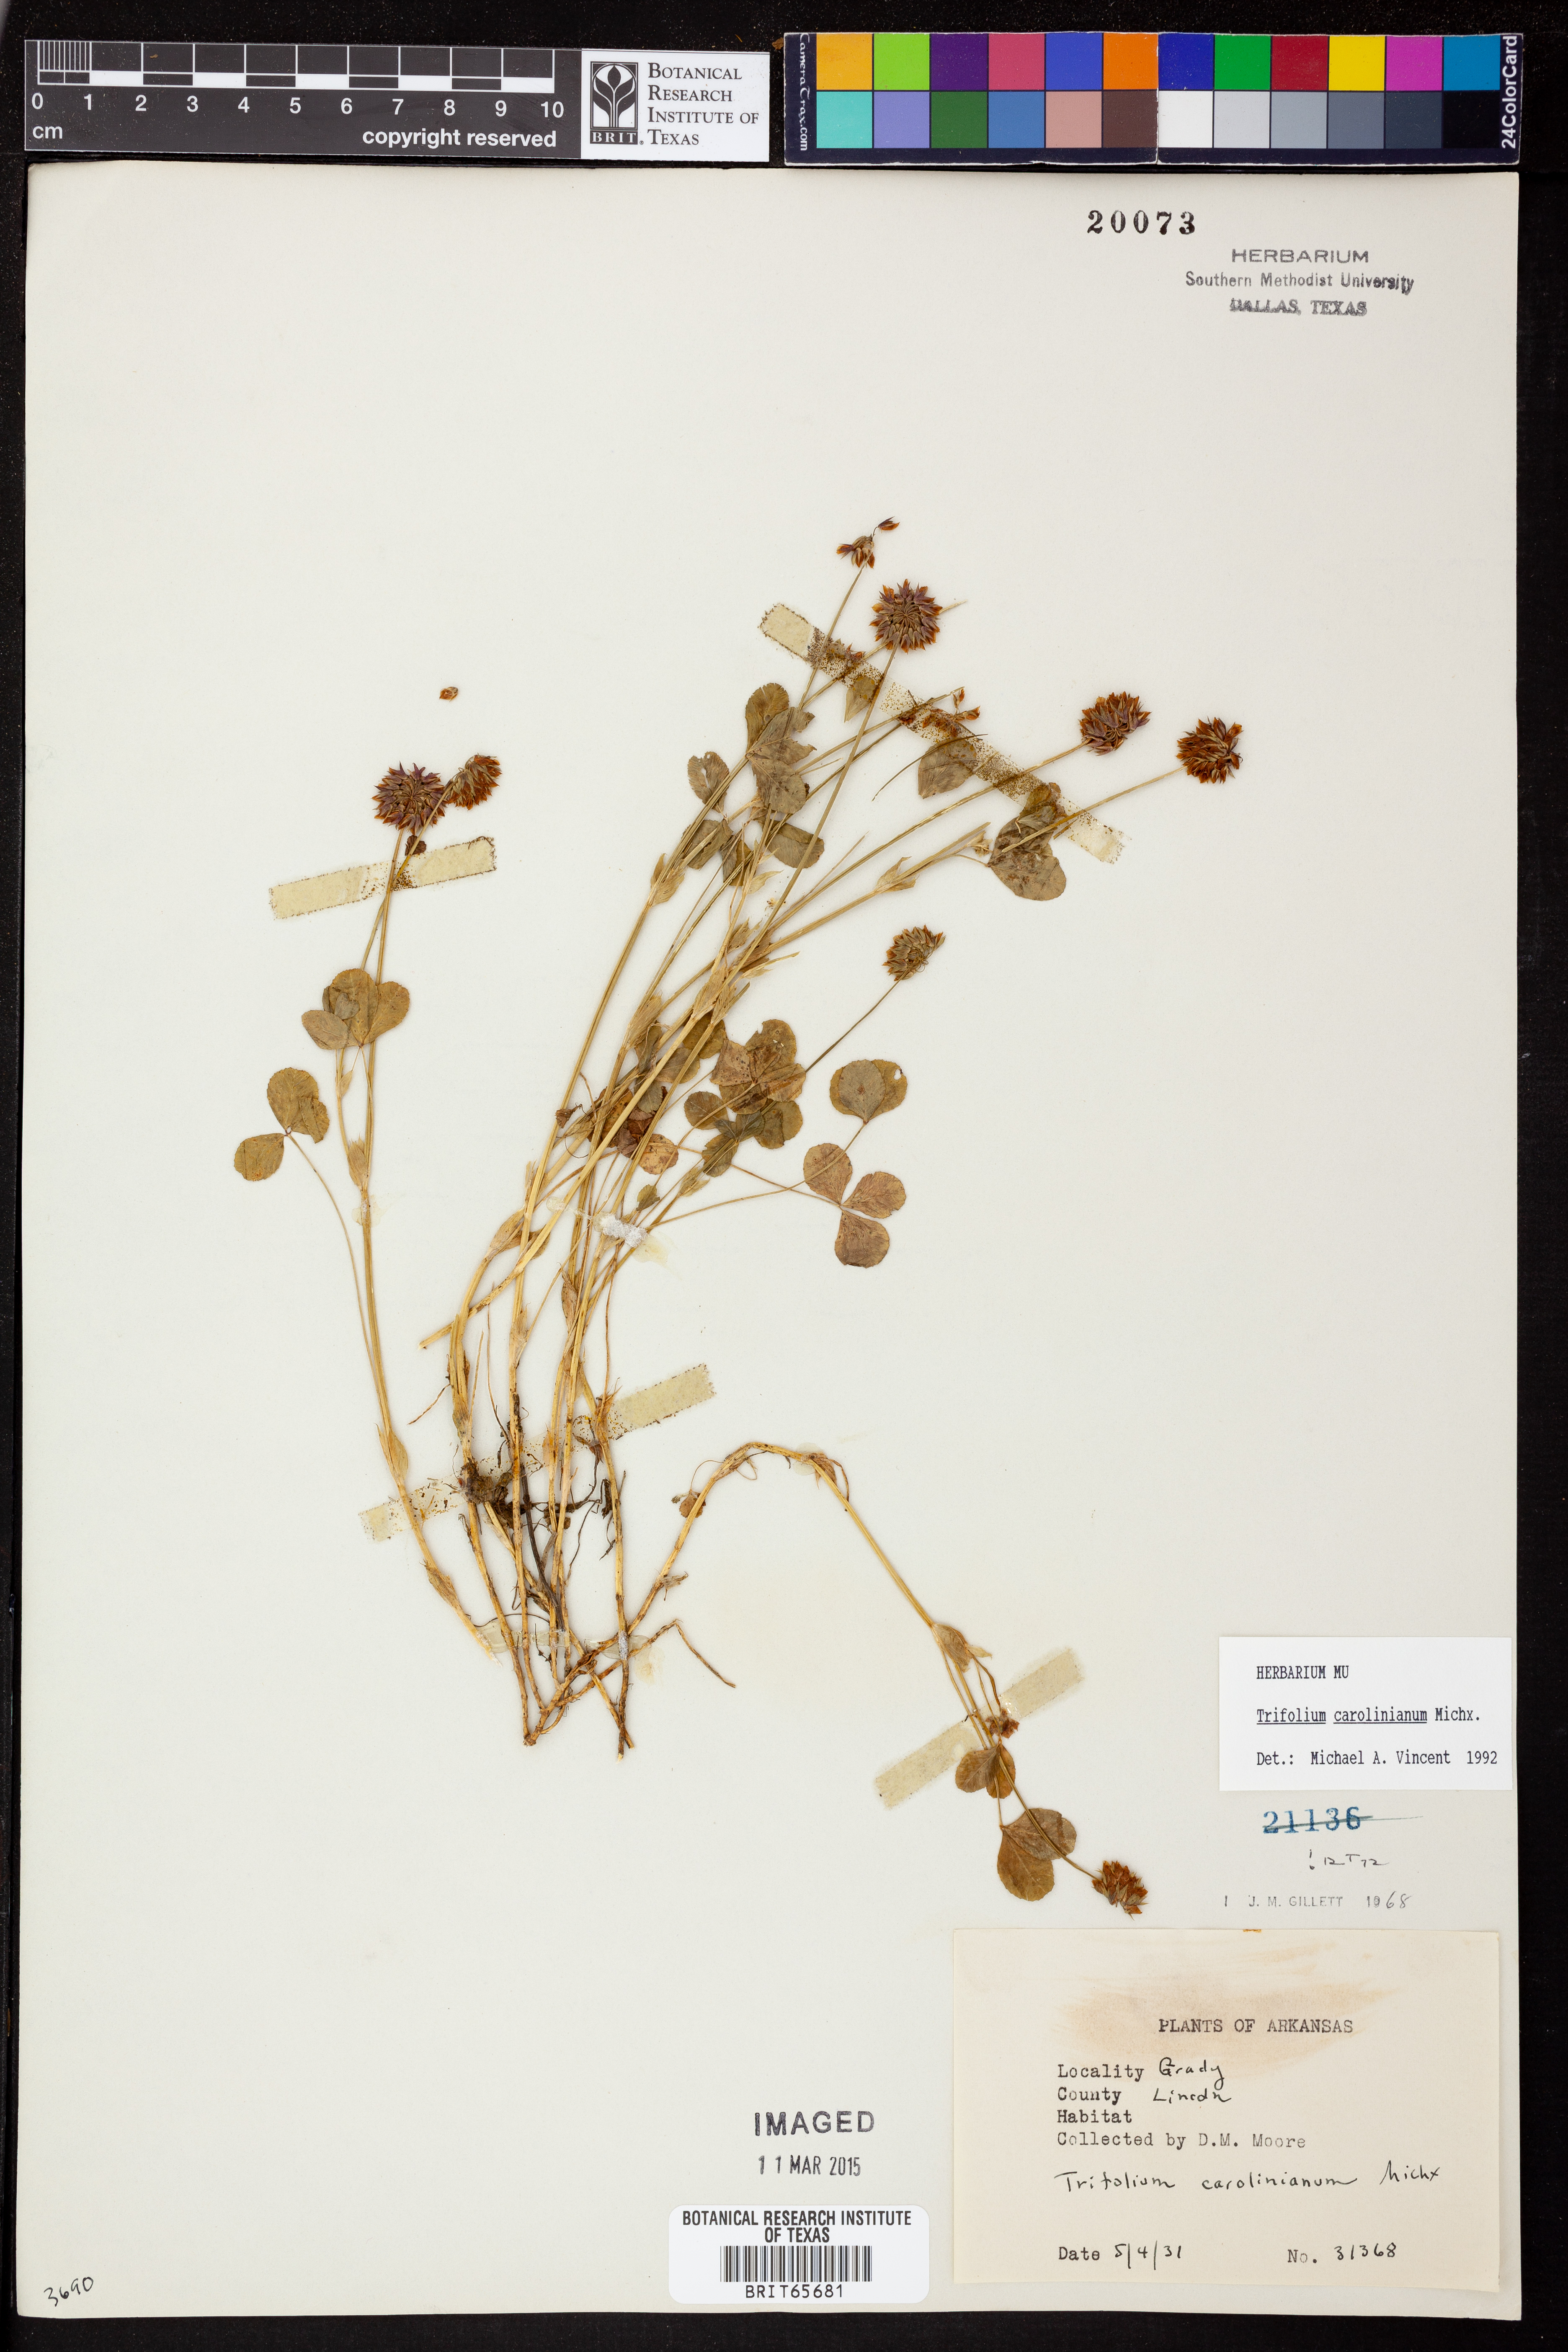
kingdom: Plantae
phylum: Tracheophyta
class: Magnoliopsida
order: Fabales
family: Fabaceae
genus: Trifolium
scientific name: Trifolium carolinianum
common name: Wild white clover
